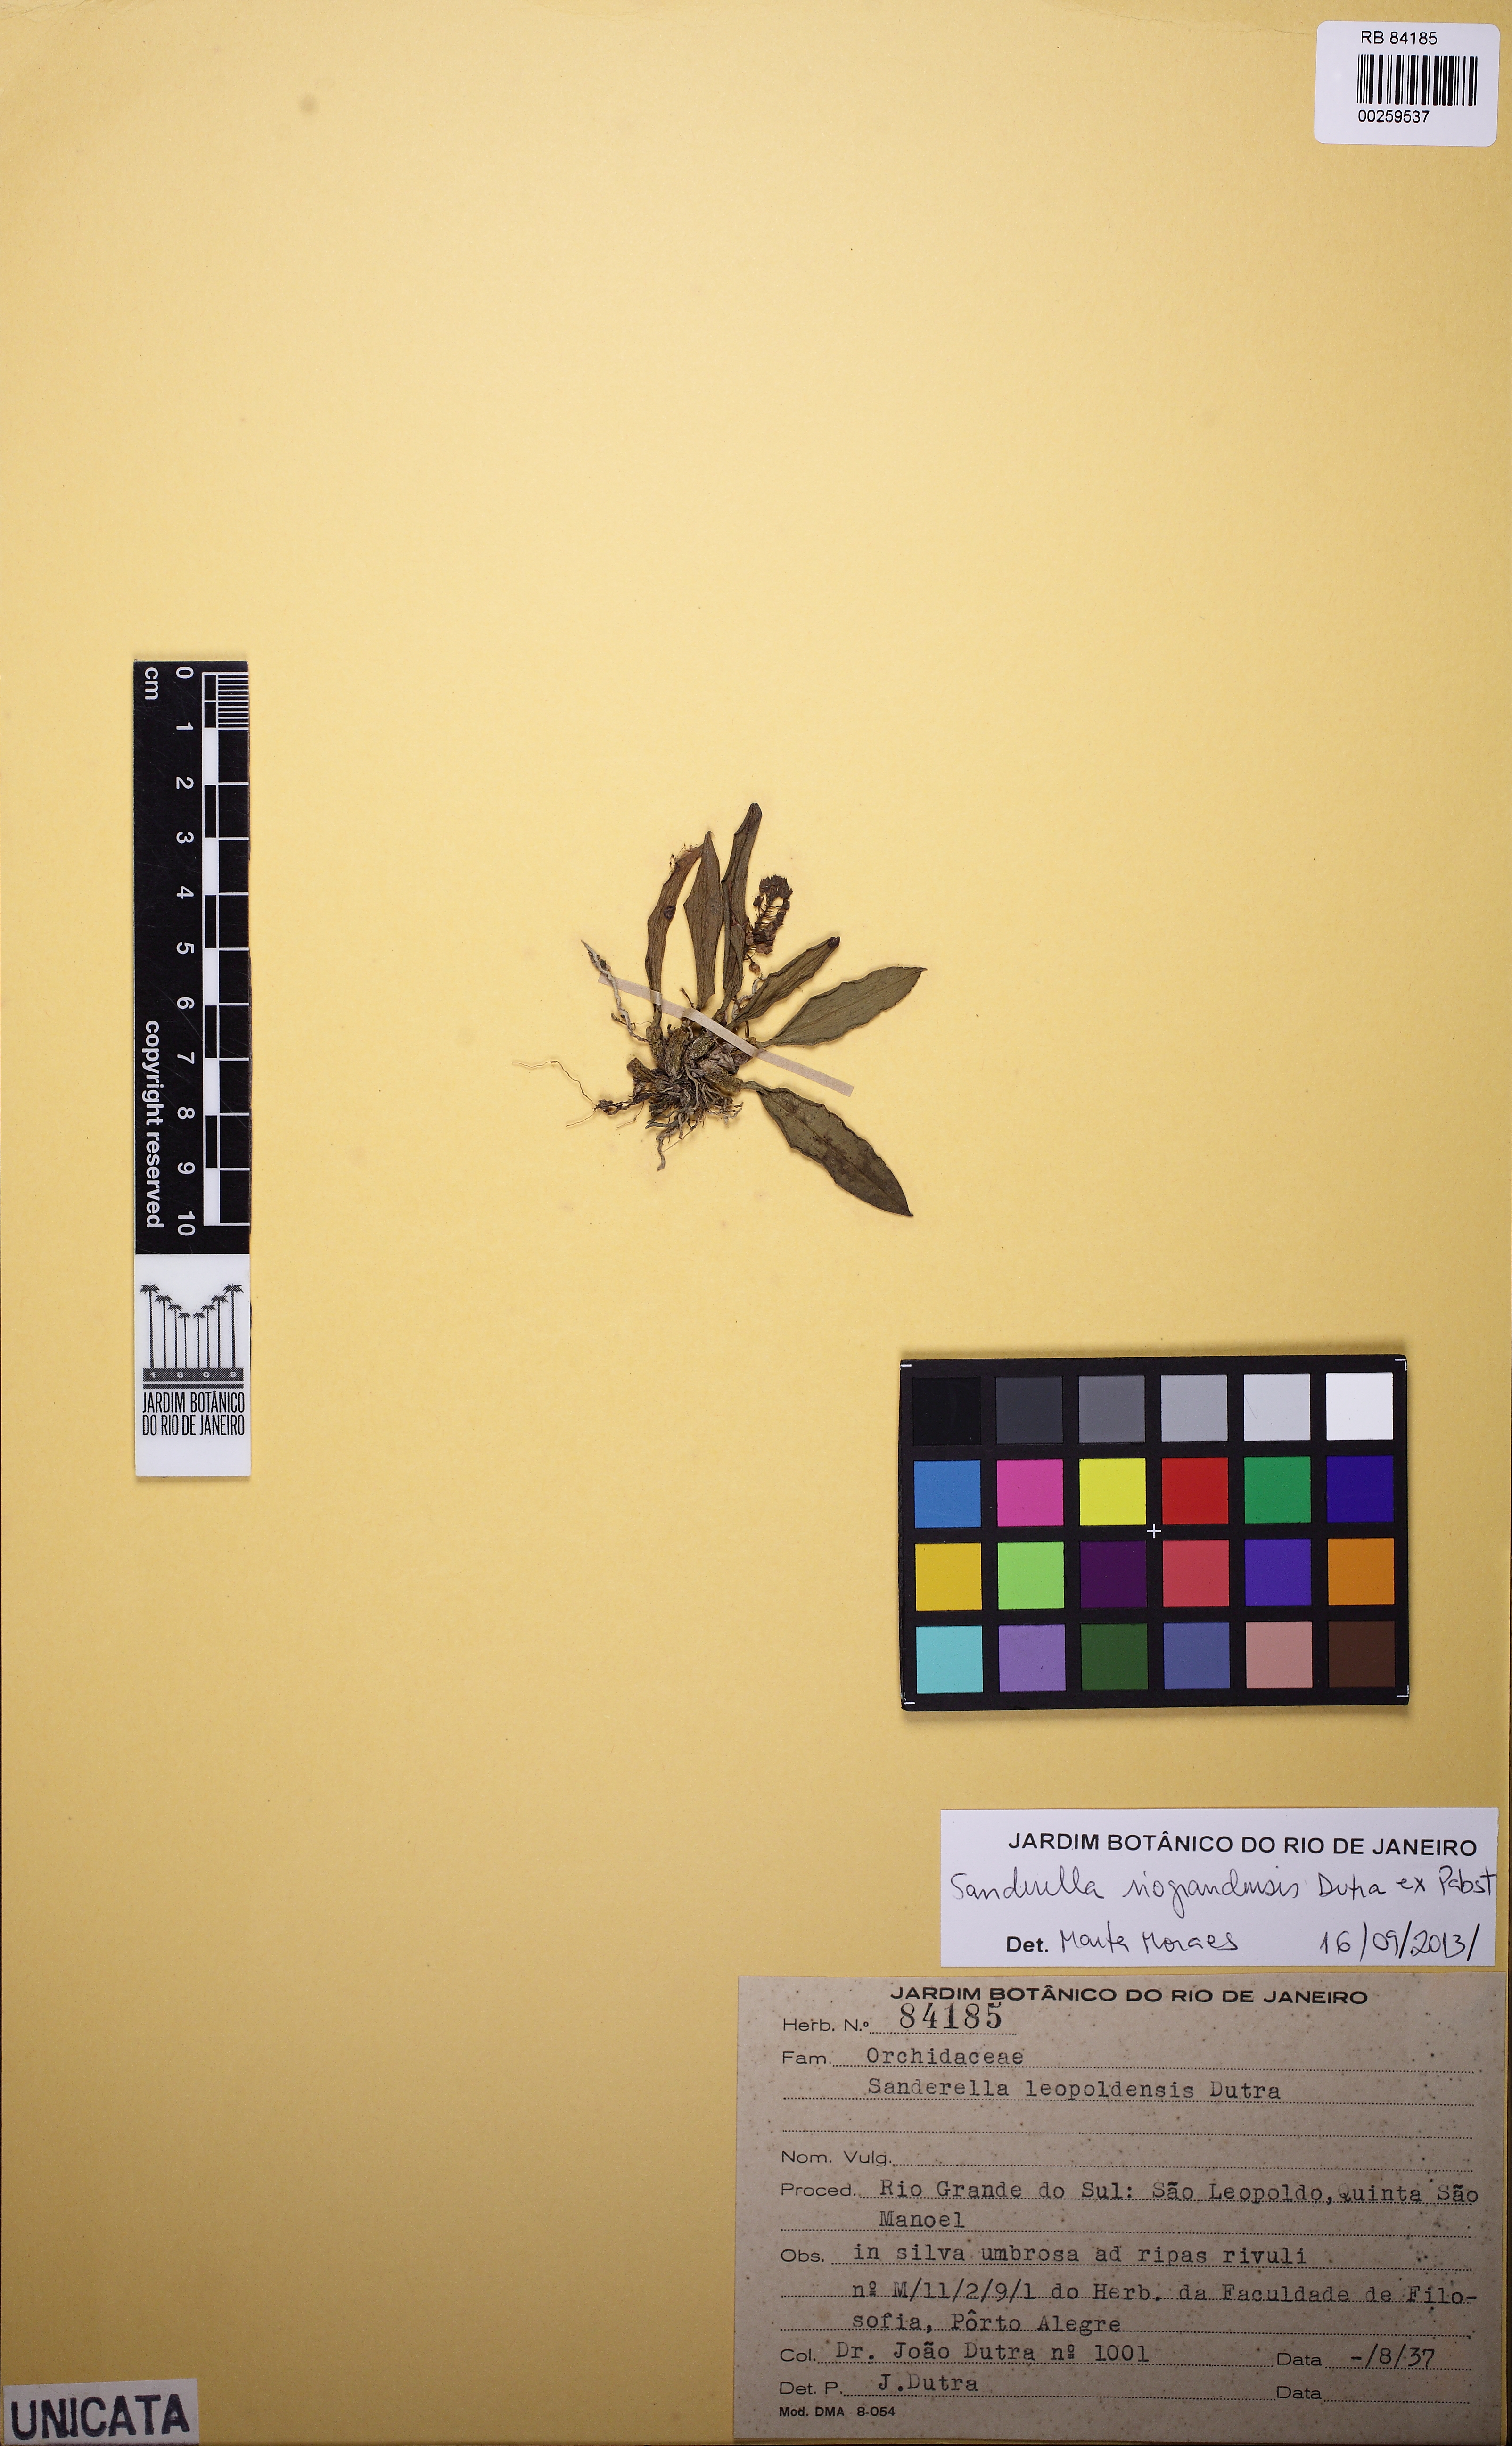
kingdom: Plantae
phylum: Tracheophyta
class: Liliopsida
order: Asparagales
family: Orchidaceae
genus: Sanderella
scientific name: Sanderella riograndensis
